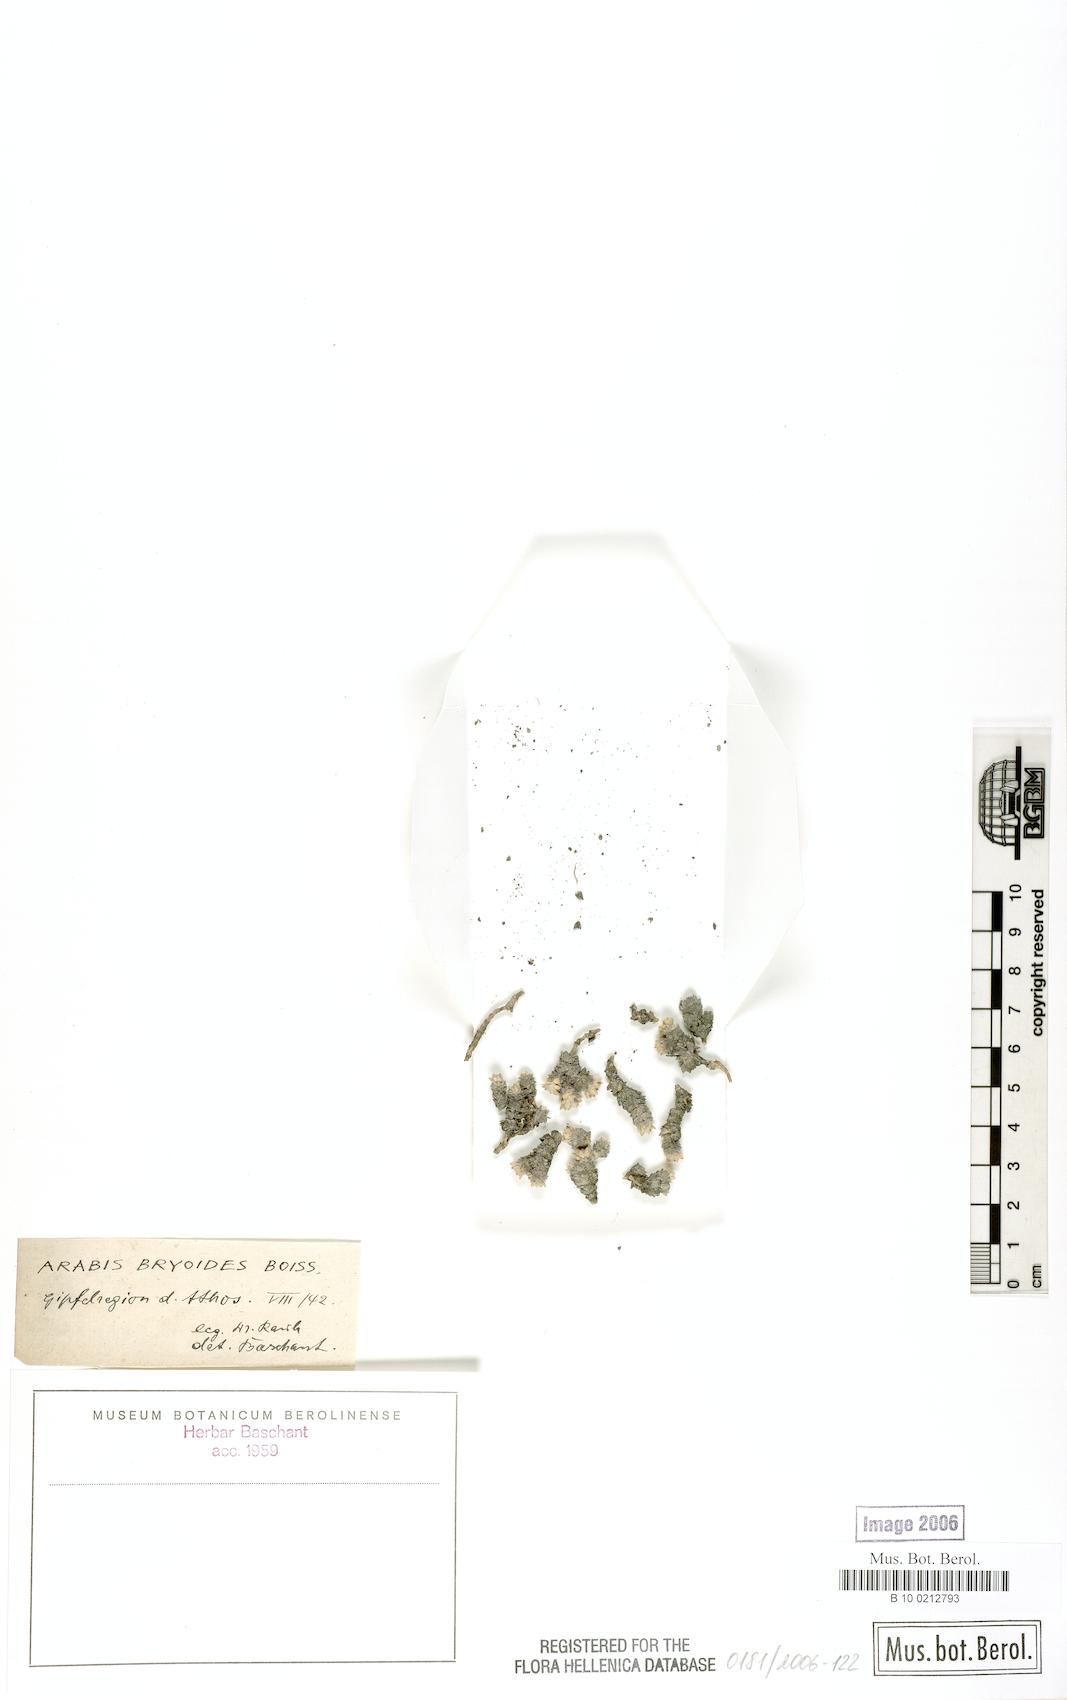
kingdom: Plantae
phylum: Tracheophyta
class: Magnoliopsida
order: Brassicales
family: Brassicaceae
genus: Arabis
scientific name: Arabis bryoides
